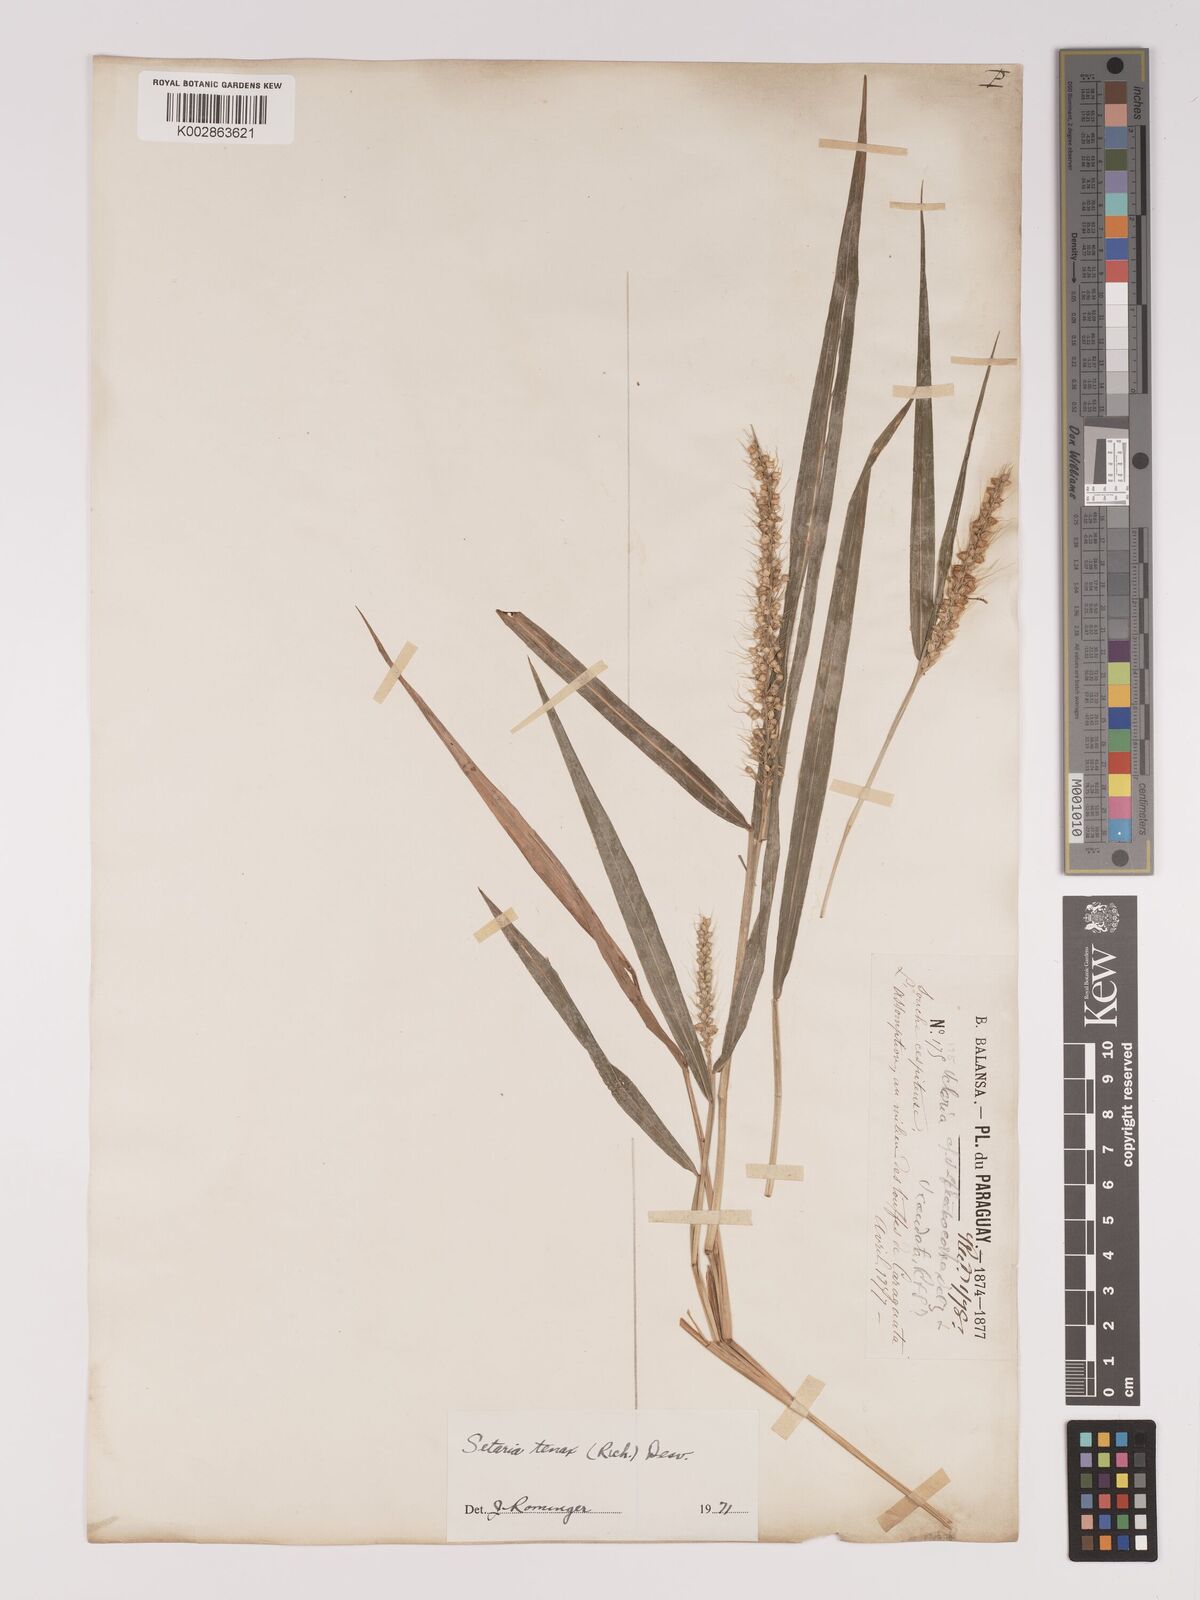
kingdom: Plantae
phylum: Tracheophyta
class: Liliopsida
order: Poales
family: Poaceae
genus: Setaria
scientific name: Setaria tenax
